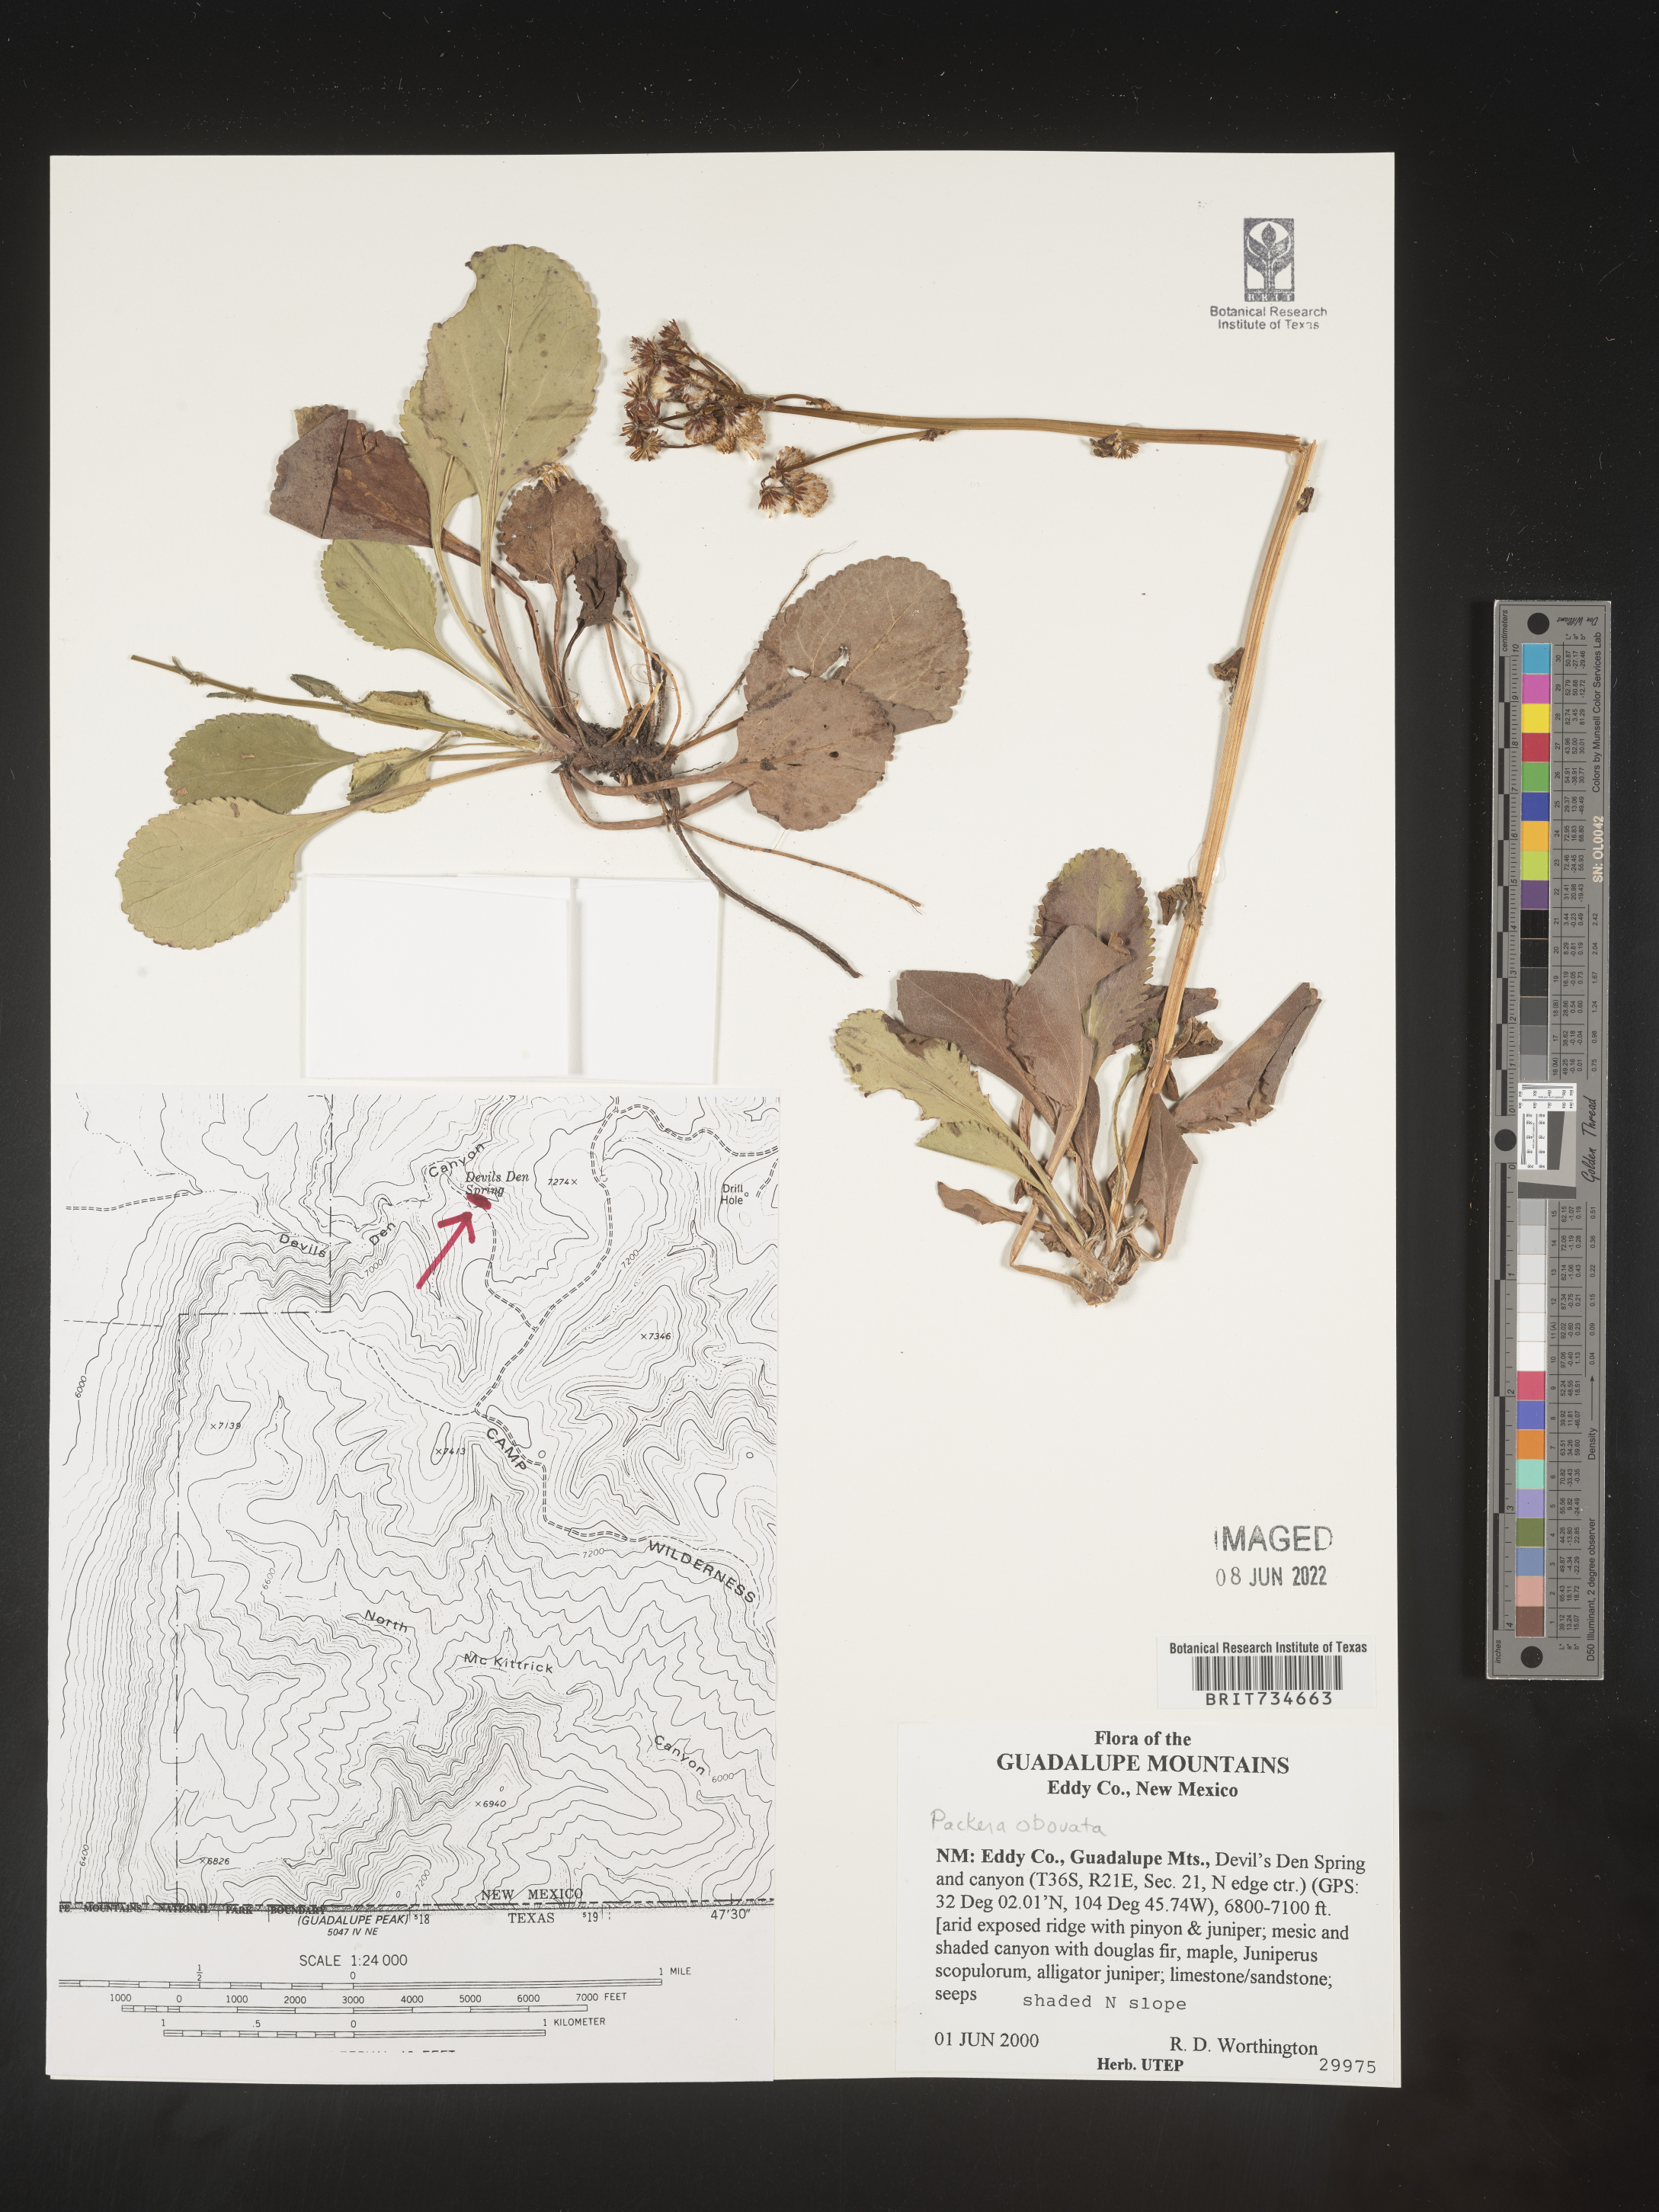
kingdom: Plantae
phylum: Tracheophyta
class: Magnoliopsida
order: Asterales
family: Asteraceae
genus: Packera
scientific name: Packera obovata
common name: Round-leaf ragwort
